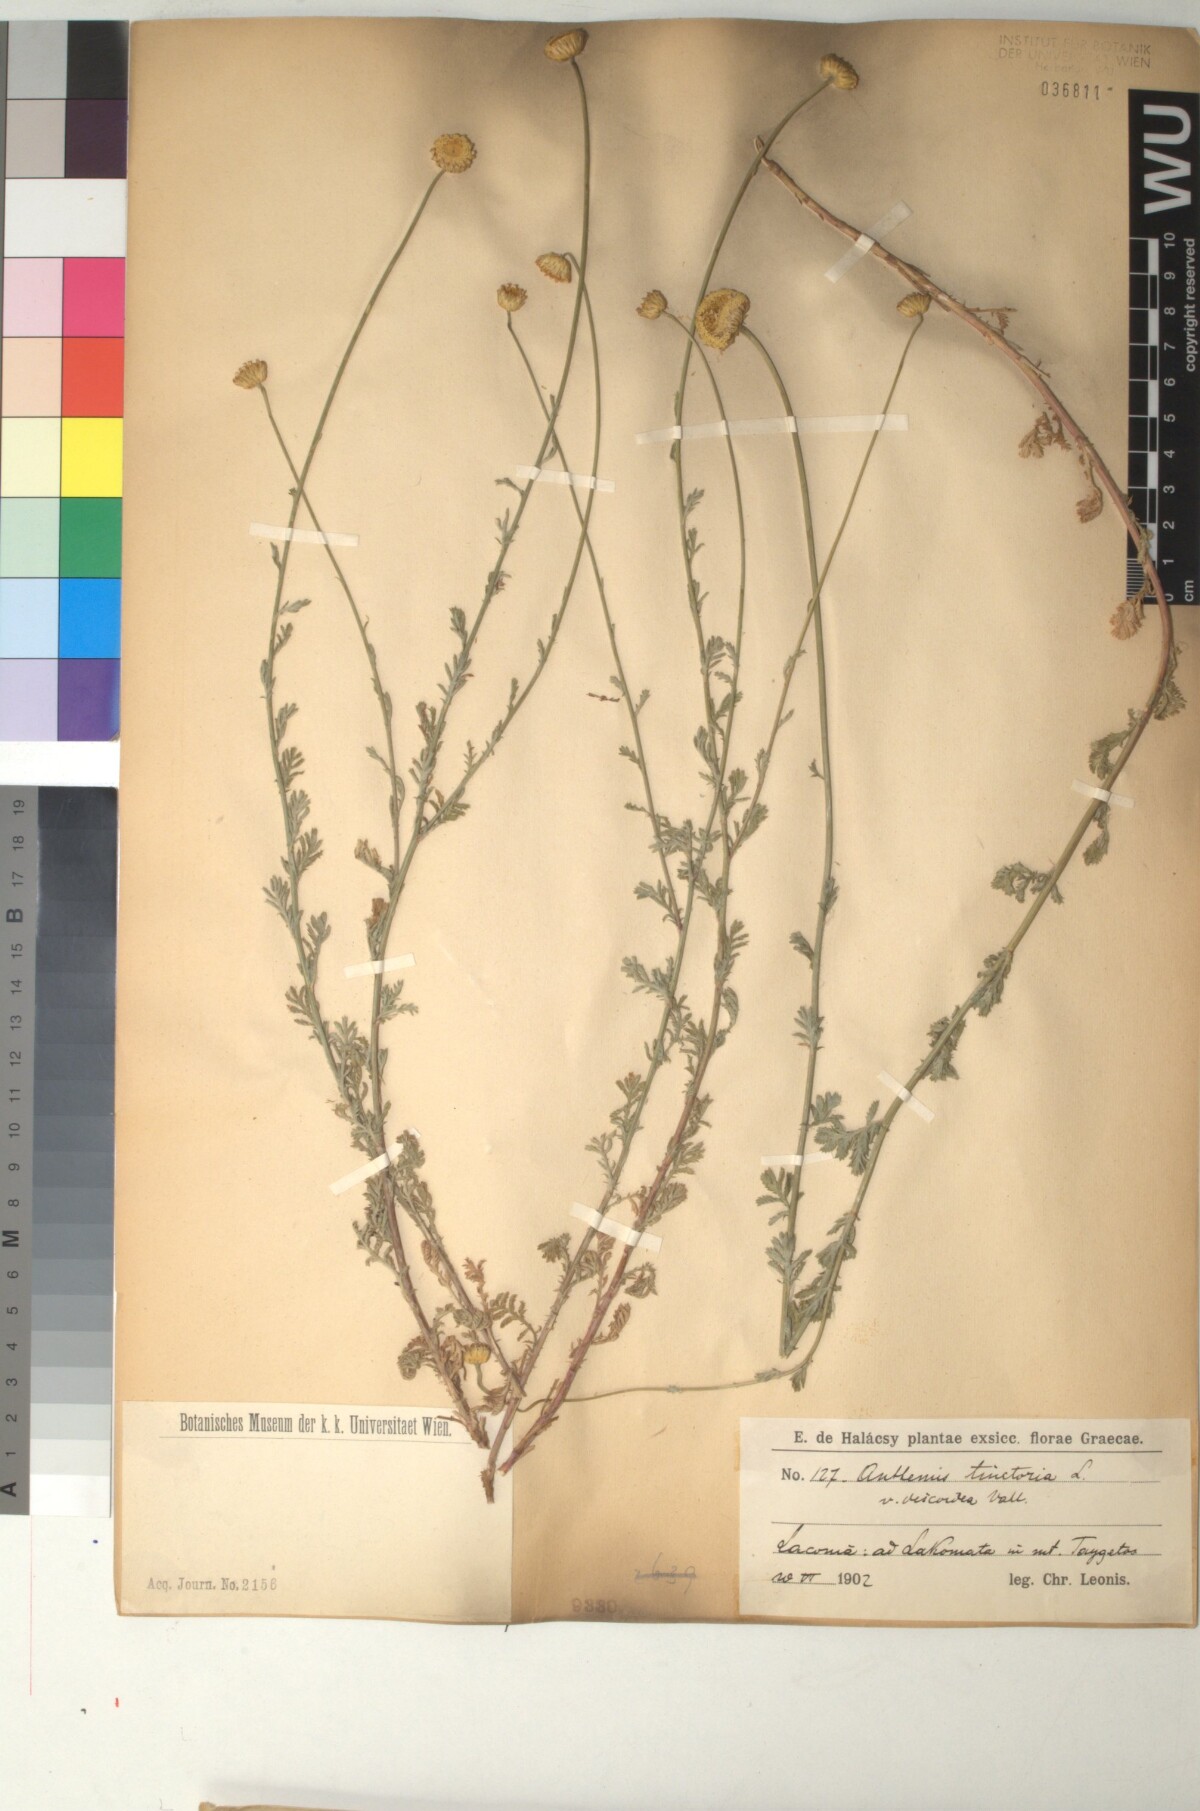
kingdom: Plantae
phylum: Tracheophyta
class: Magnoliopsida
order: Asterales
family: Asteraceae
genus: Cota
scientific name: Cota tinctoria
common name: Golden chamomile
